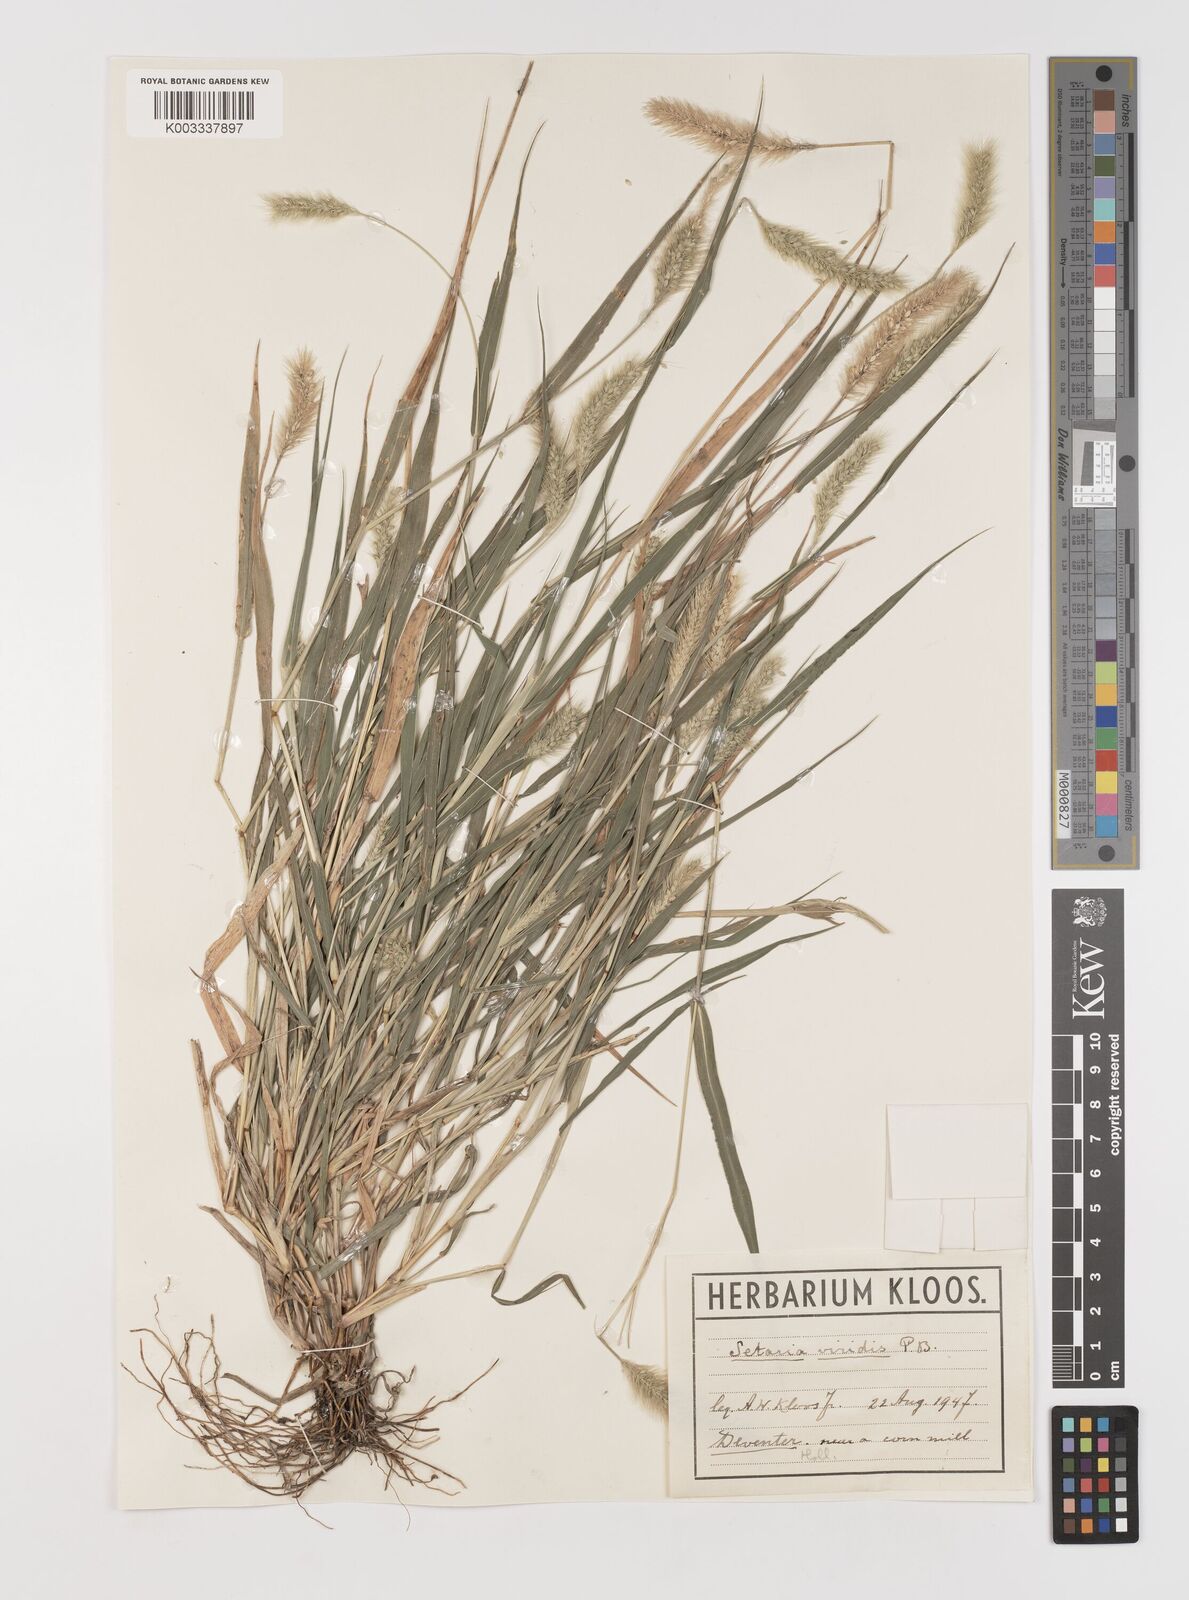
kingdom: Plantae
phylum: Tracheophyta
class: Liliopsida
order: Poales
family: Poaceae
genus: Setaria
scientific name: Setaria viridis
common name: Green bristlegrass
